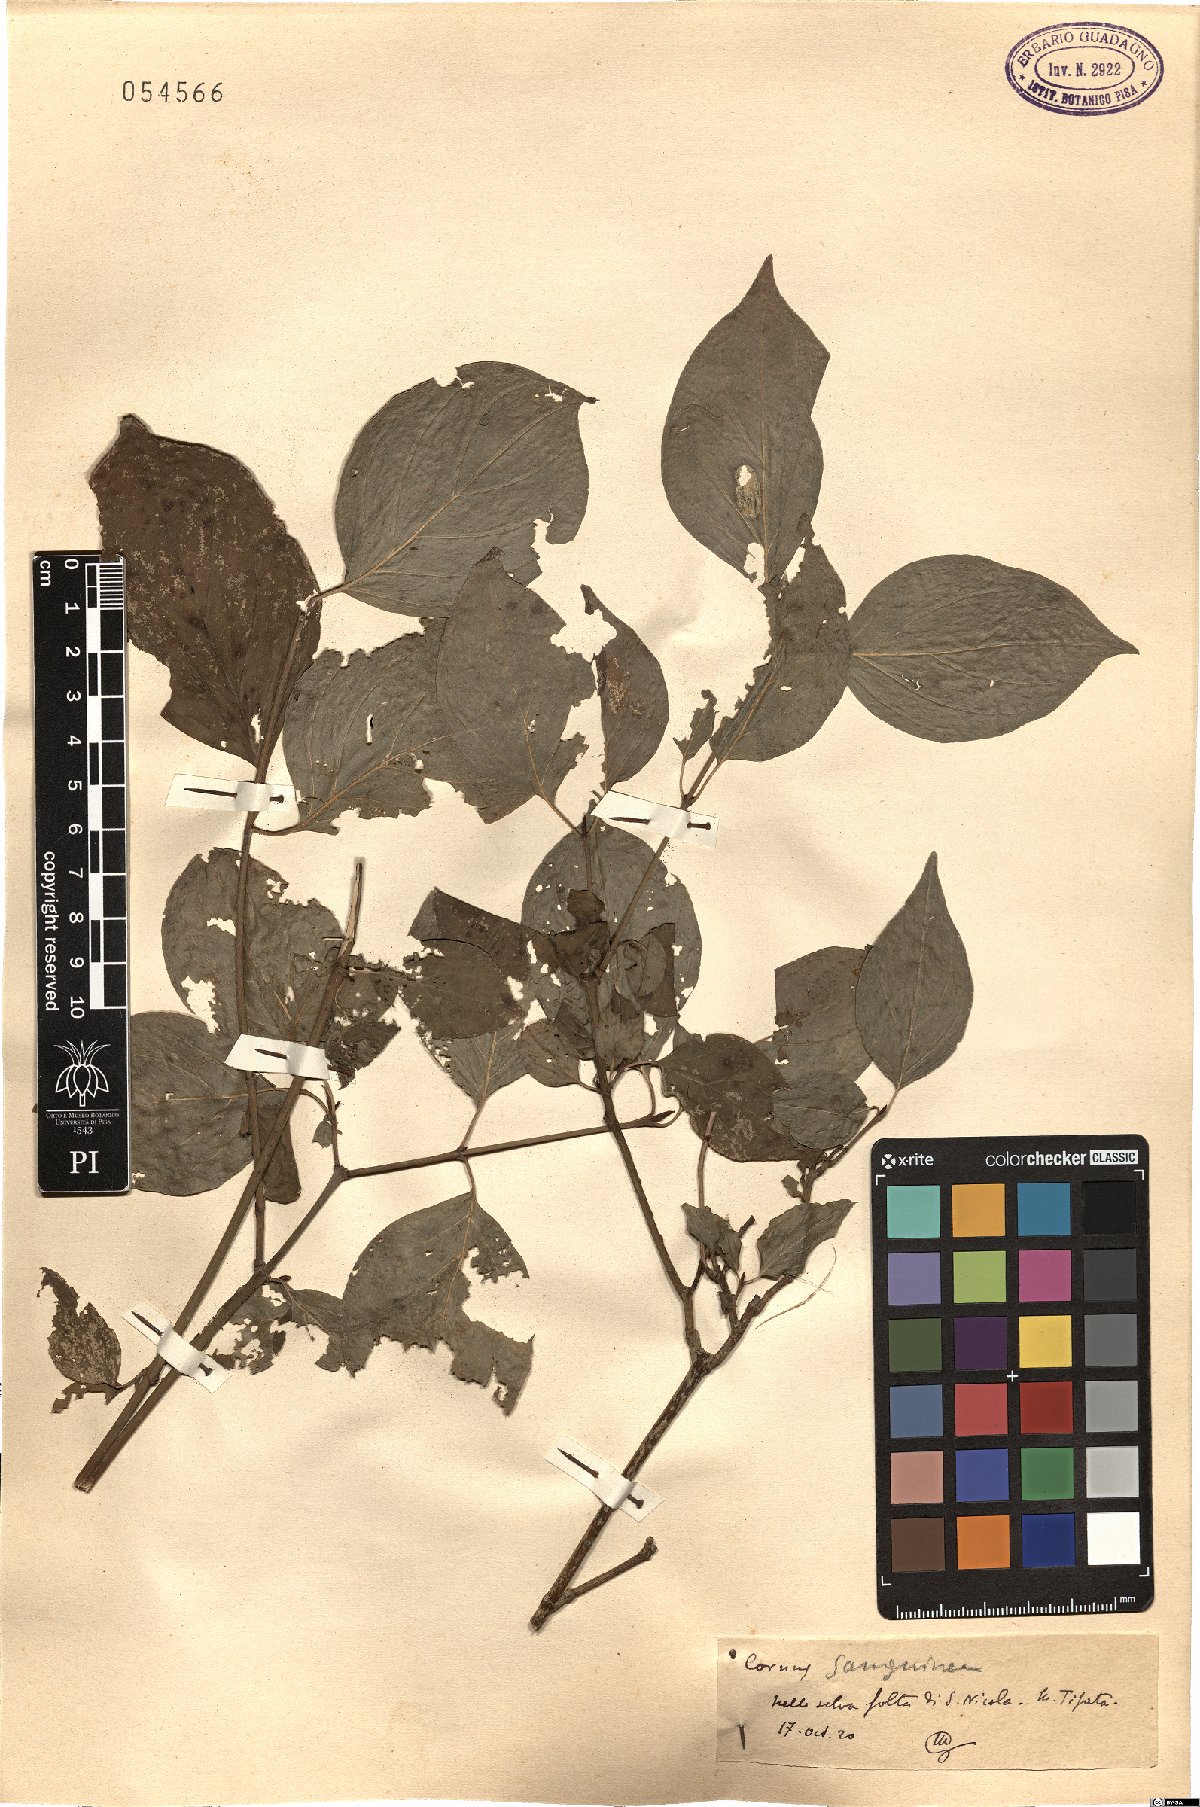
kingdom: Plantae
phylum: Tracheophyta
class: Magnoliopsida
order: Cornales
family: Cornaceae
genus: Cornus
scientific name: Cornus sanguinea
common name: Dogwood
